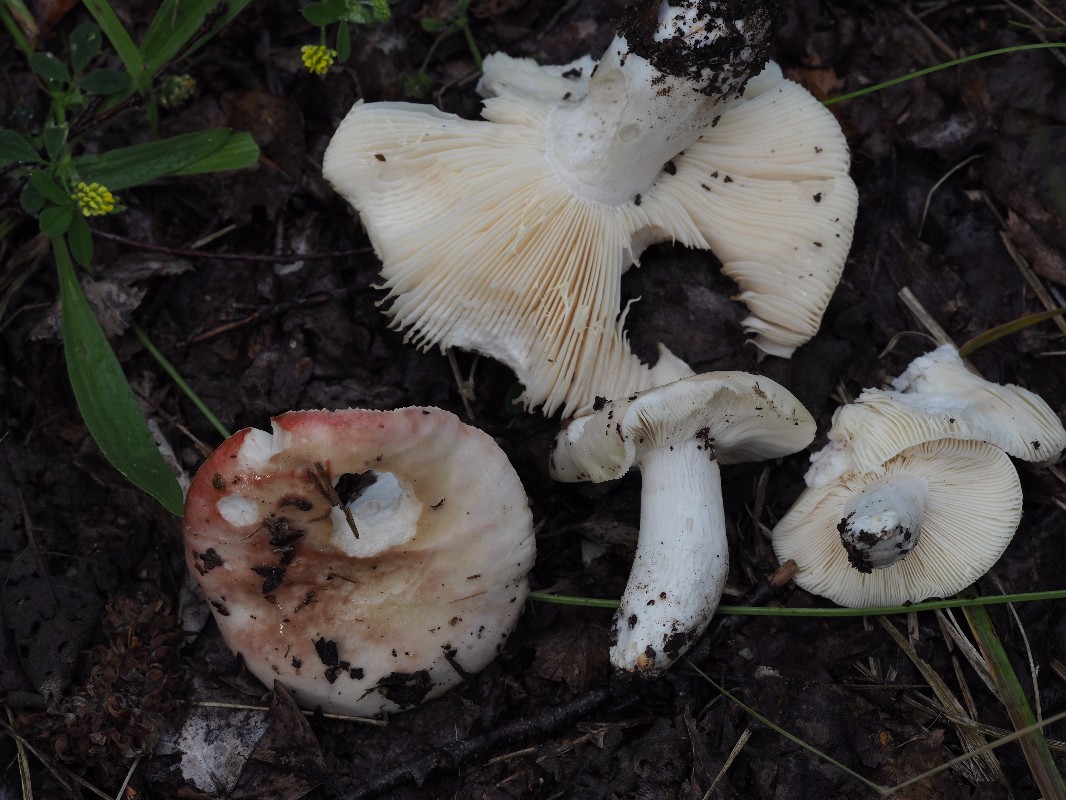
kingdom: Fungi
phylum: Basidiomycota
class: Agaricomycetes
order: Russulales
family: Russulaceae
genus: Russula
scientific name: Russula depallens
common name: falmende skørhat
